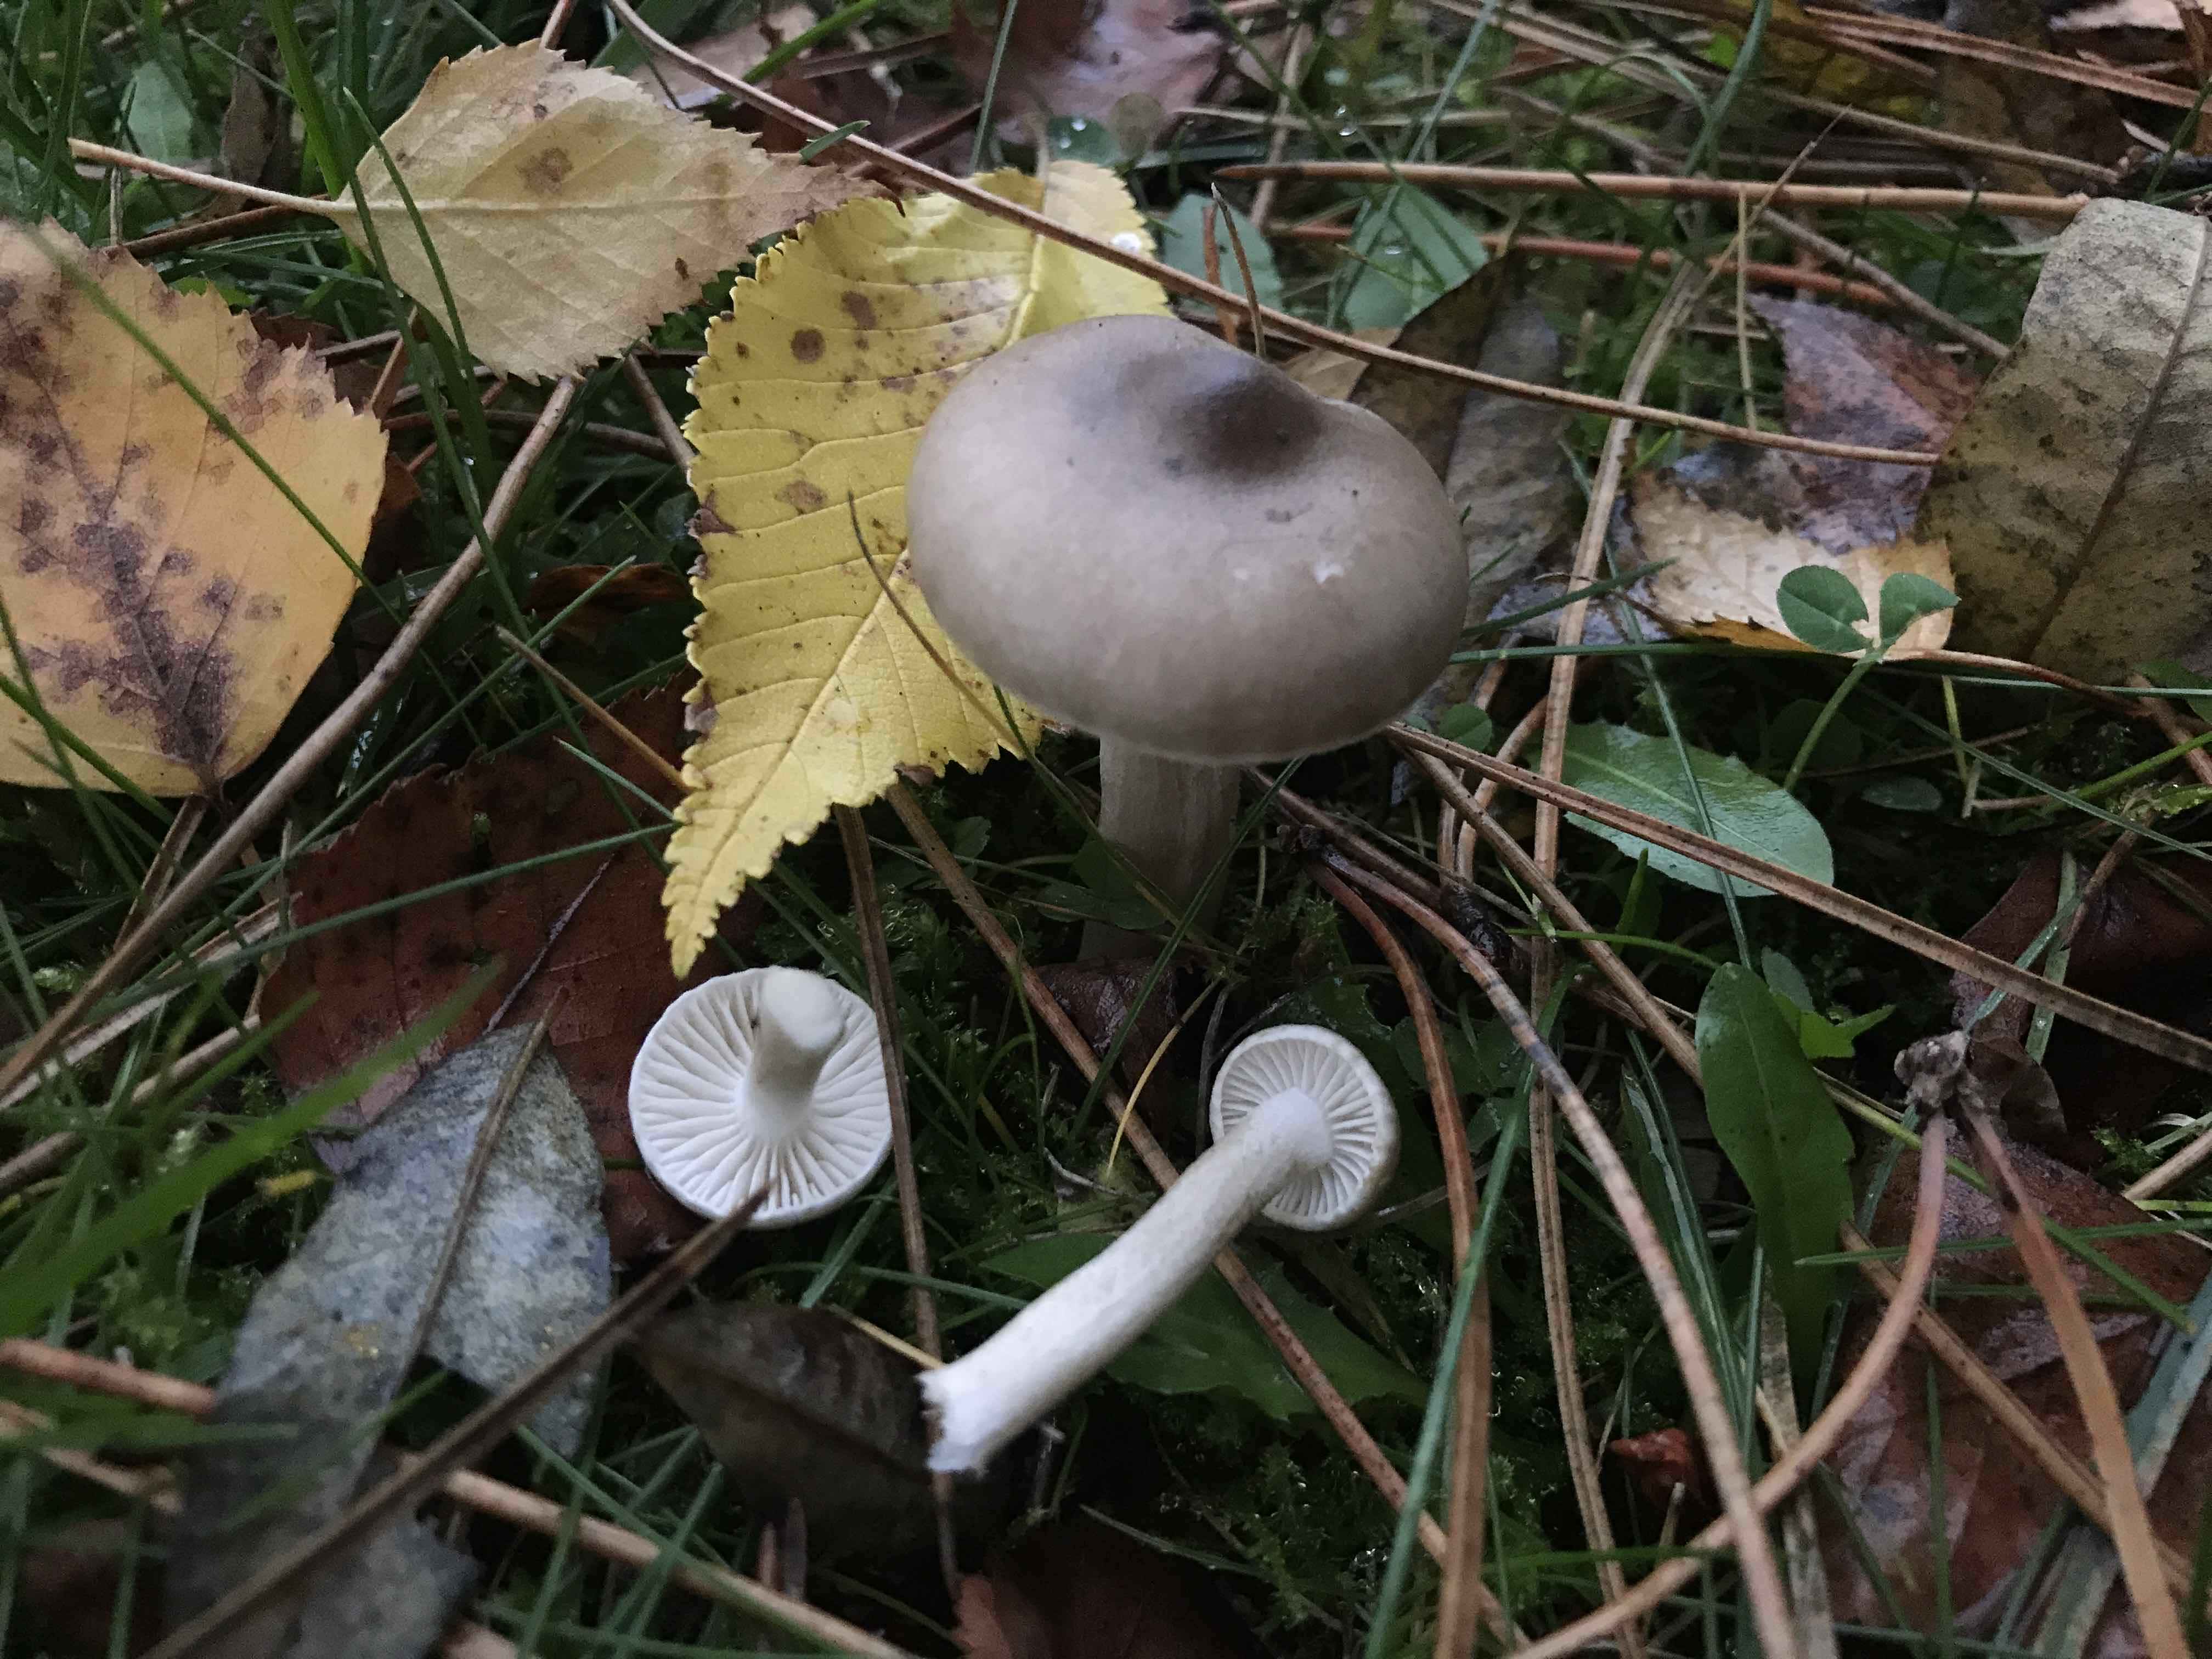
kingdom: Fungi
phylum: Basidiomycota
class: Agaricomycetes
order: Agaricales
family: Hygrophoraceae
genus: Hygrophorus
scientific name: Hygrophorus agathosmus
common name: vellugtende sneglehat
